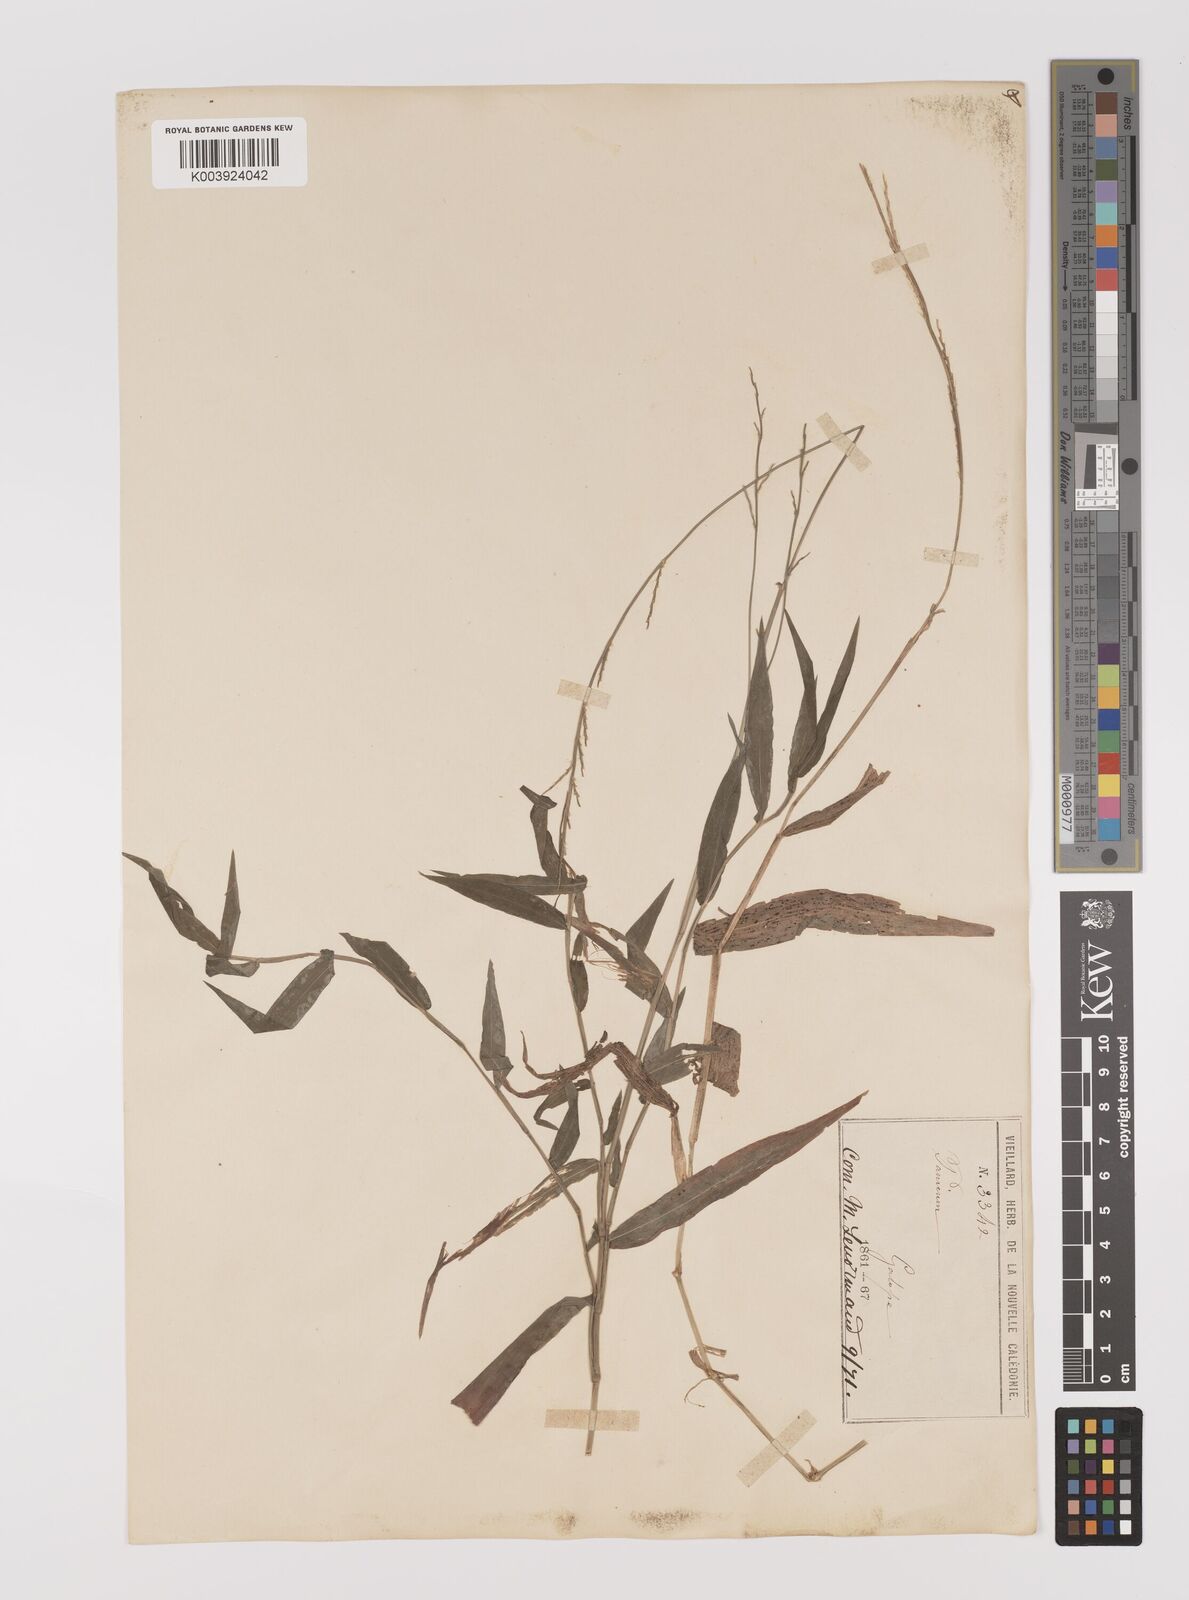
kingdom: Plantae
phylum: Tracheophyta
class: Liliopsida
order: Poales
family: Poaceae
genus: Oplismenus
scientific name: Oplismenus hirtellus
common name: Basketgrass
